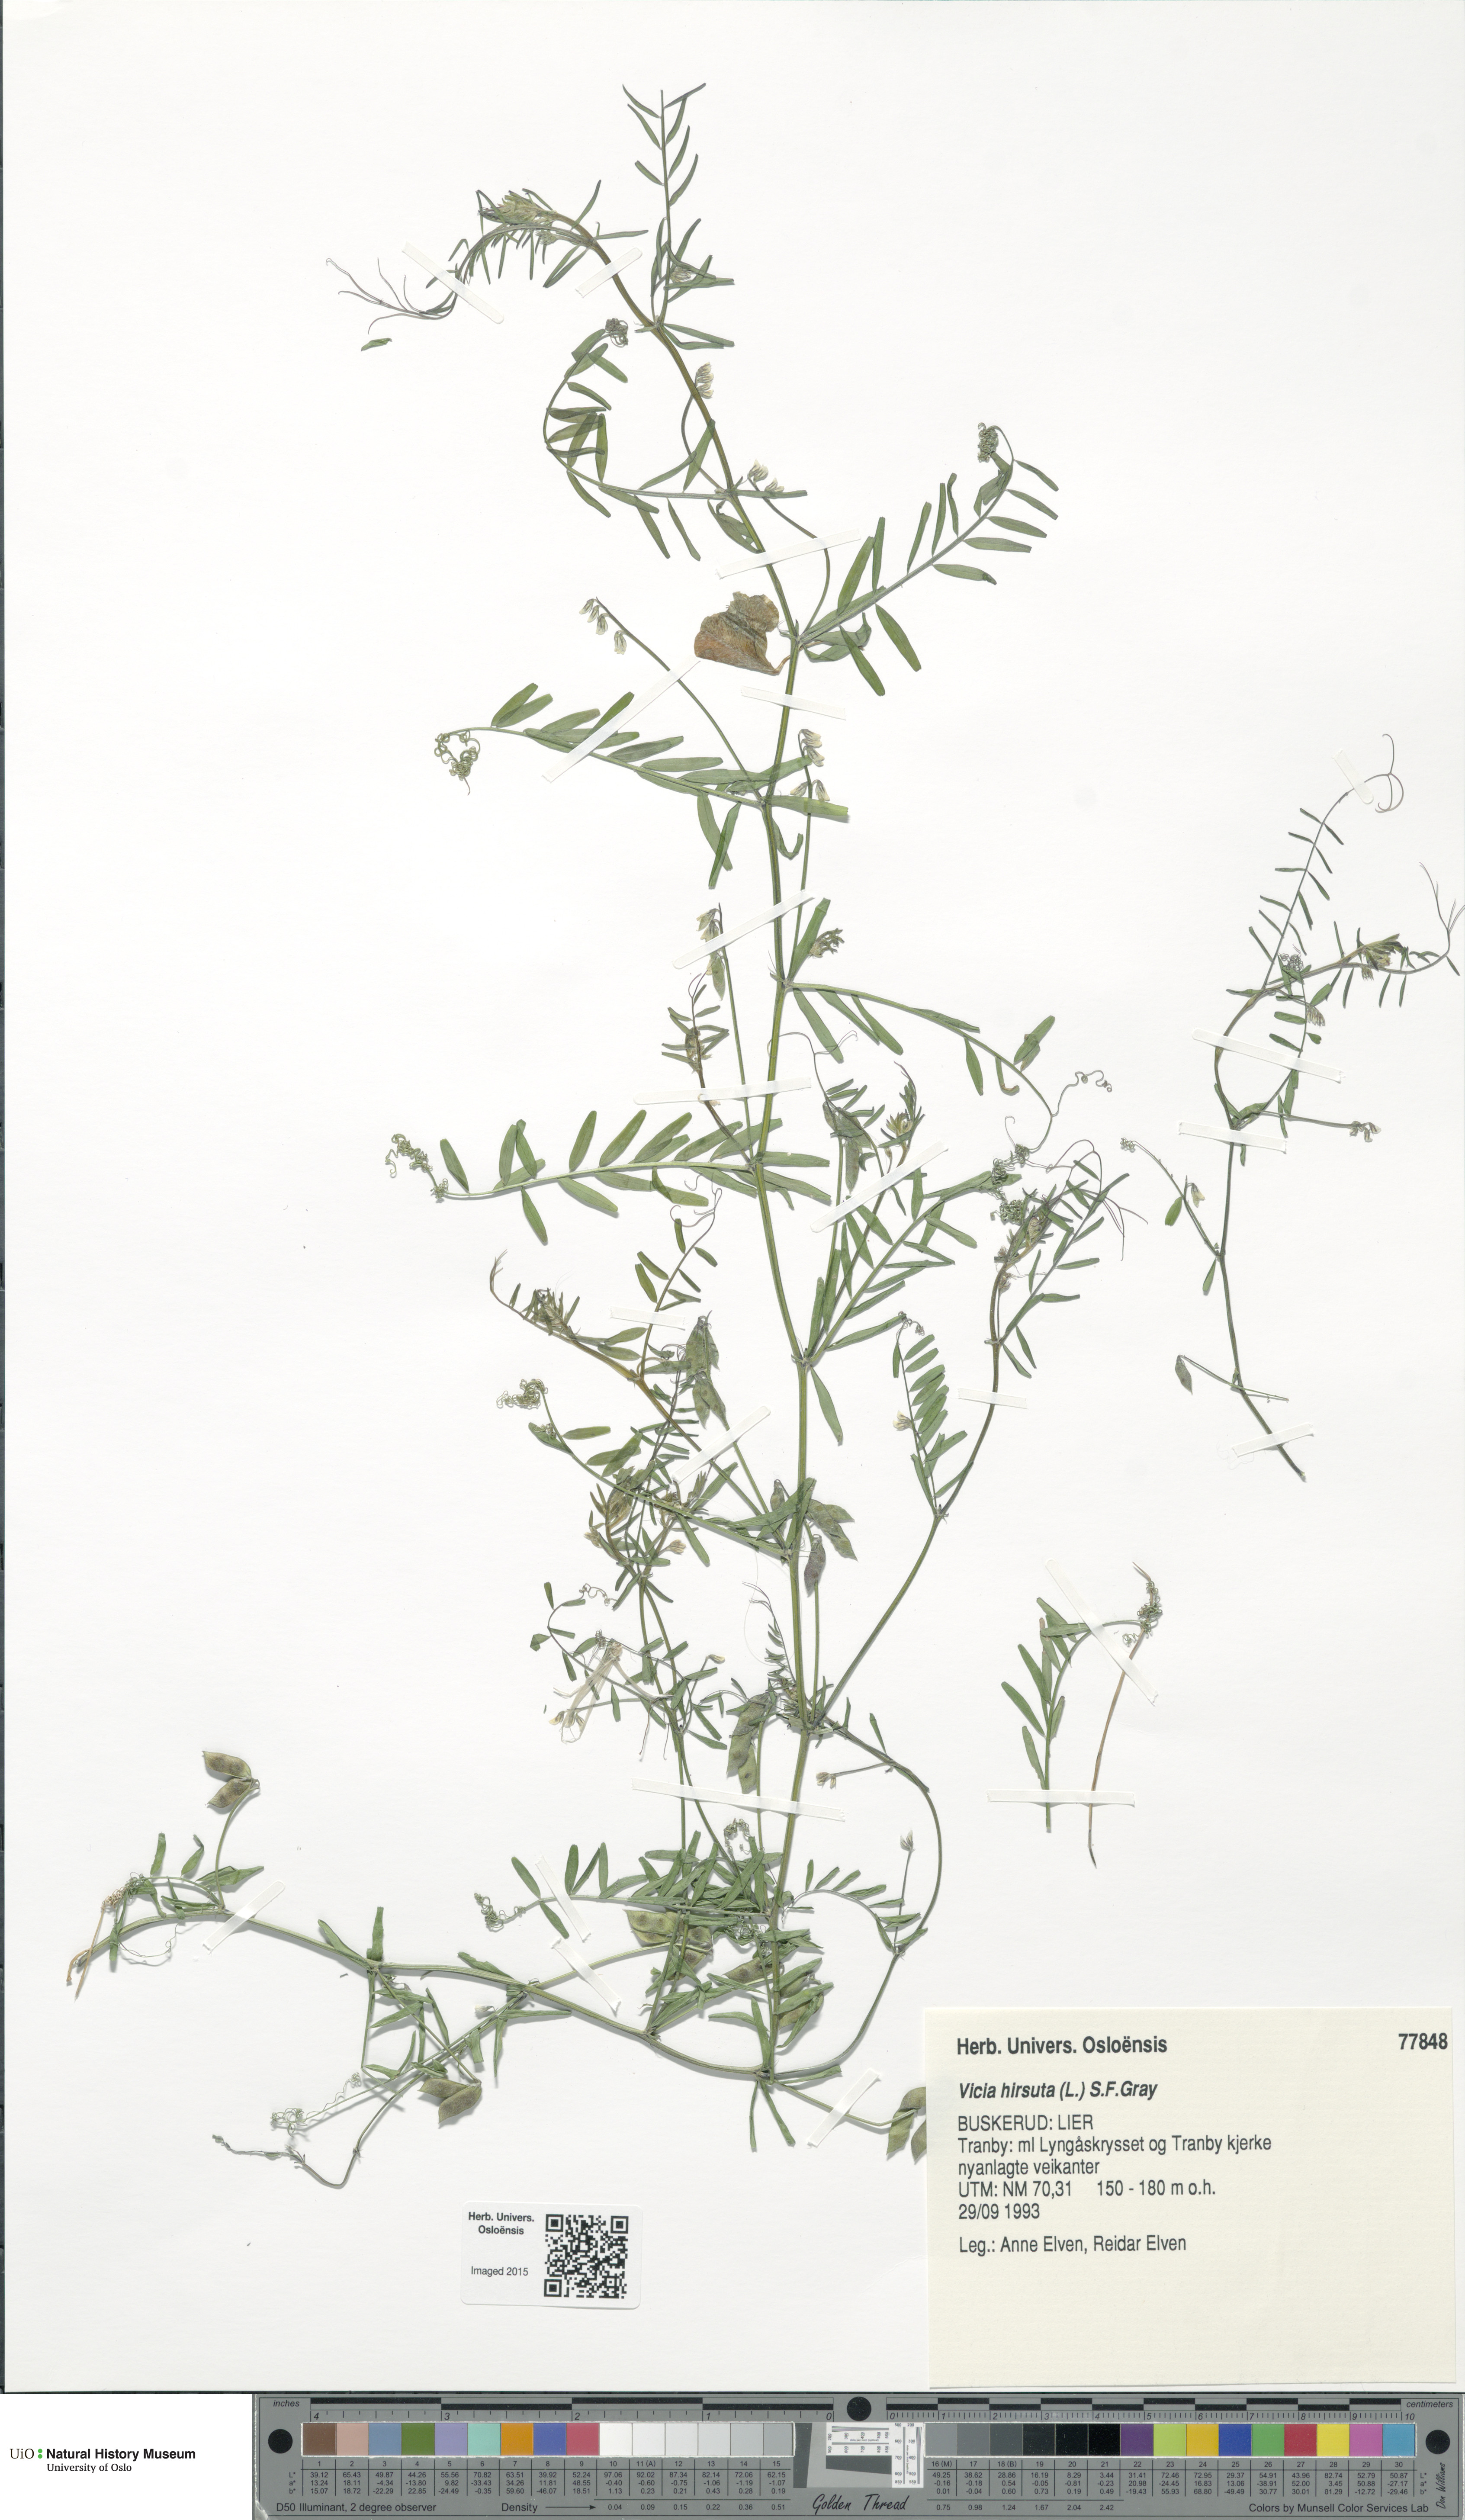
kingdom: Plantae
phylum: Tracheophyta
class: Magnoliopsida
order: Fabales
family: Fabaceae
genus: Vicia
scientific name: Vicia hirsuta
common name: Tiny vetch
